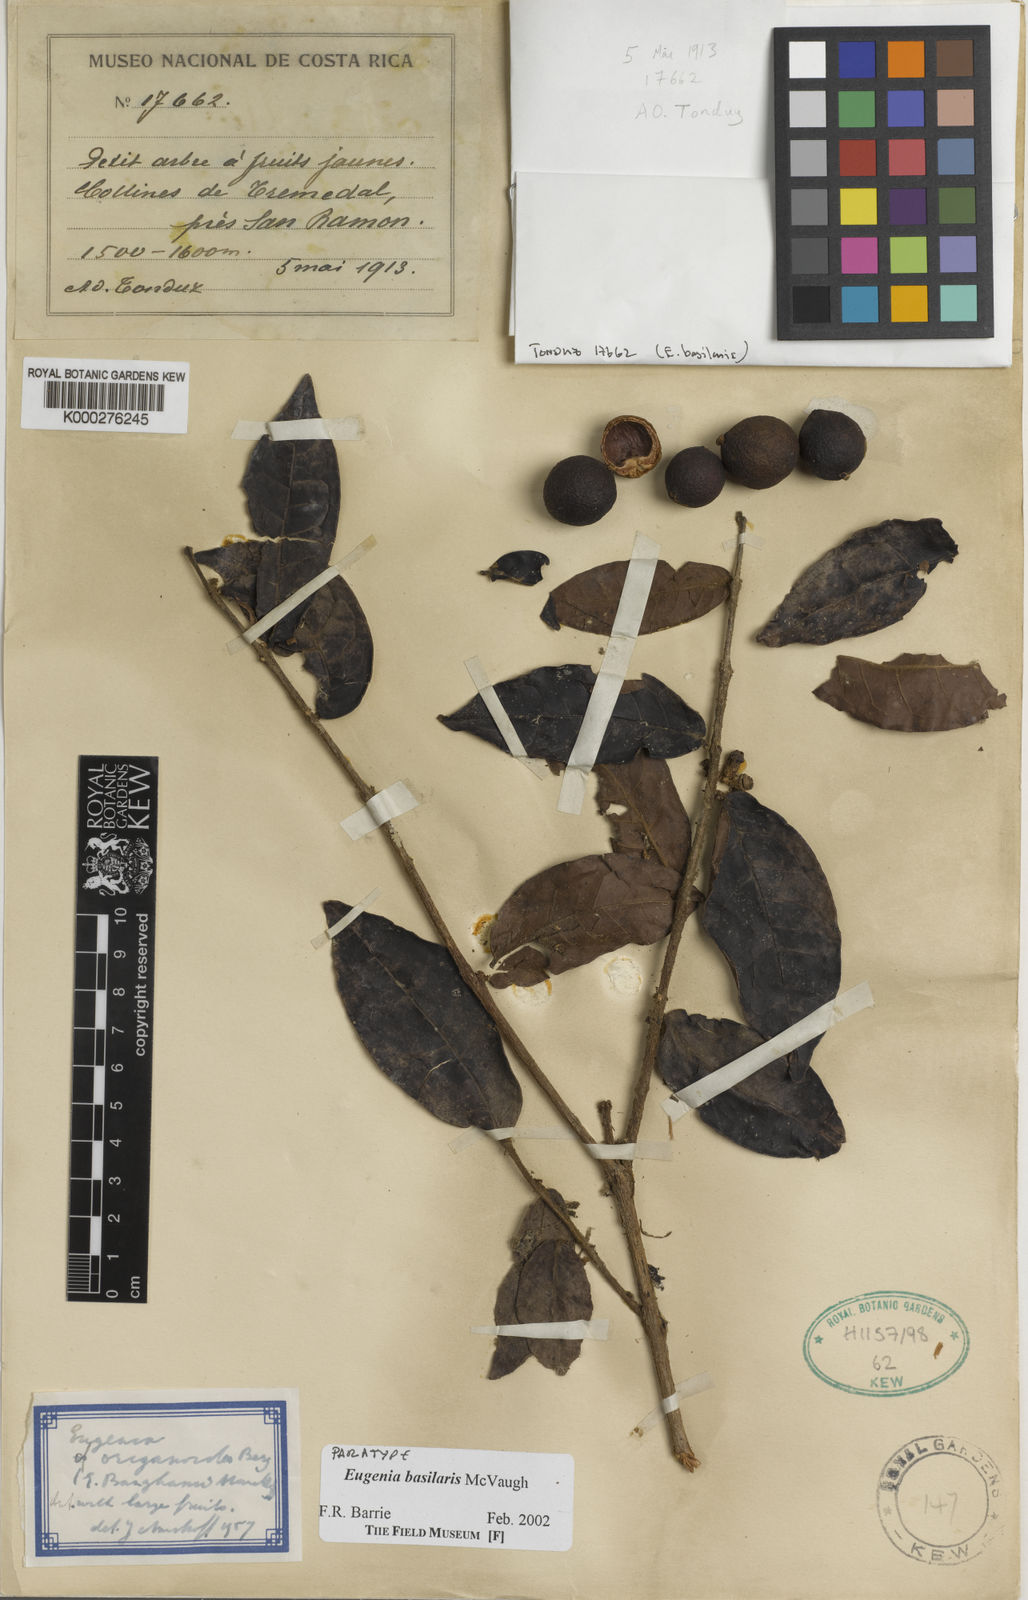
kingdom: Plantae
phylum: Tracheophyta
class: Magnoliopsida
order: Myrtales
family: Myrtaceae
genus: Eugenia
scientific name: Eugenia basilaris
